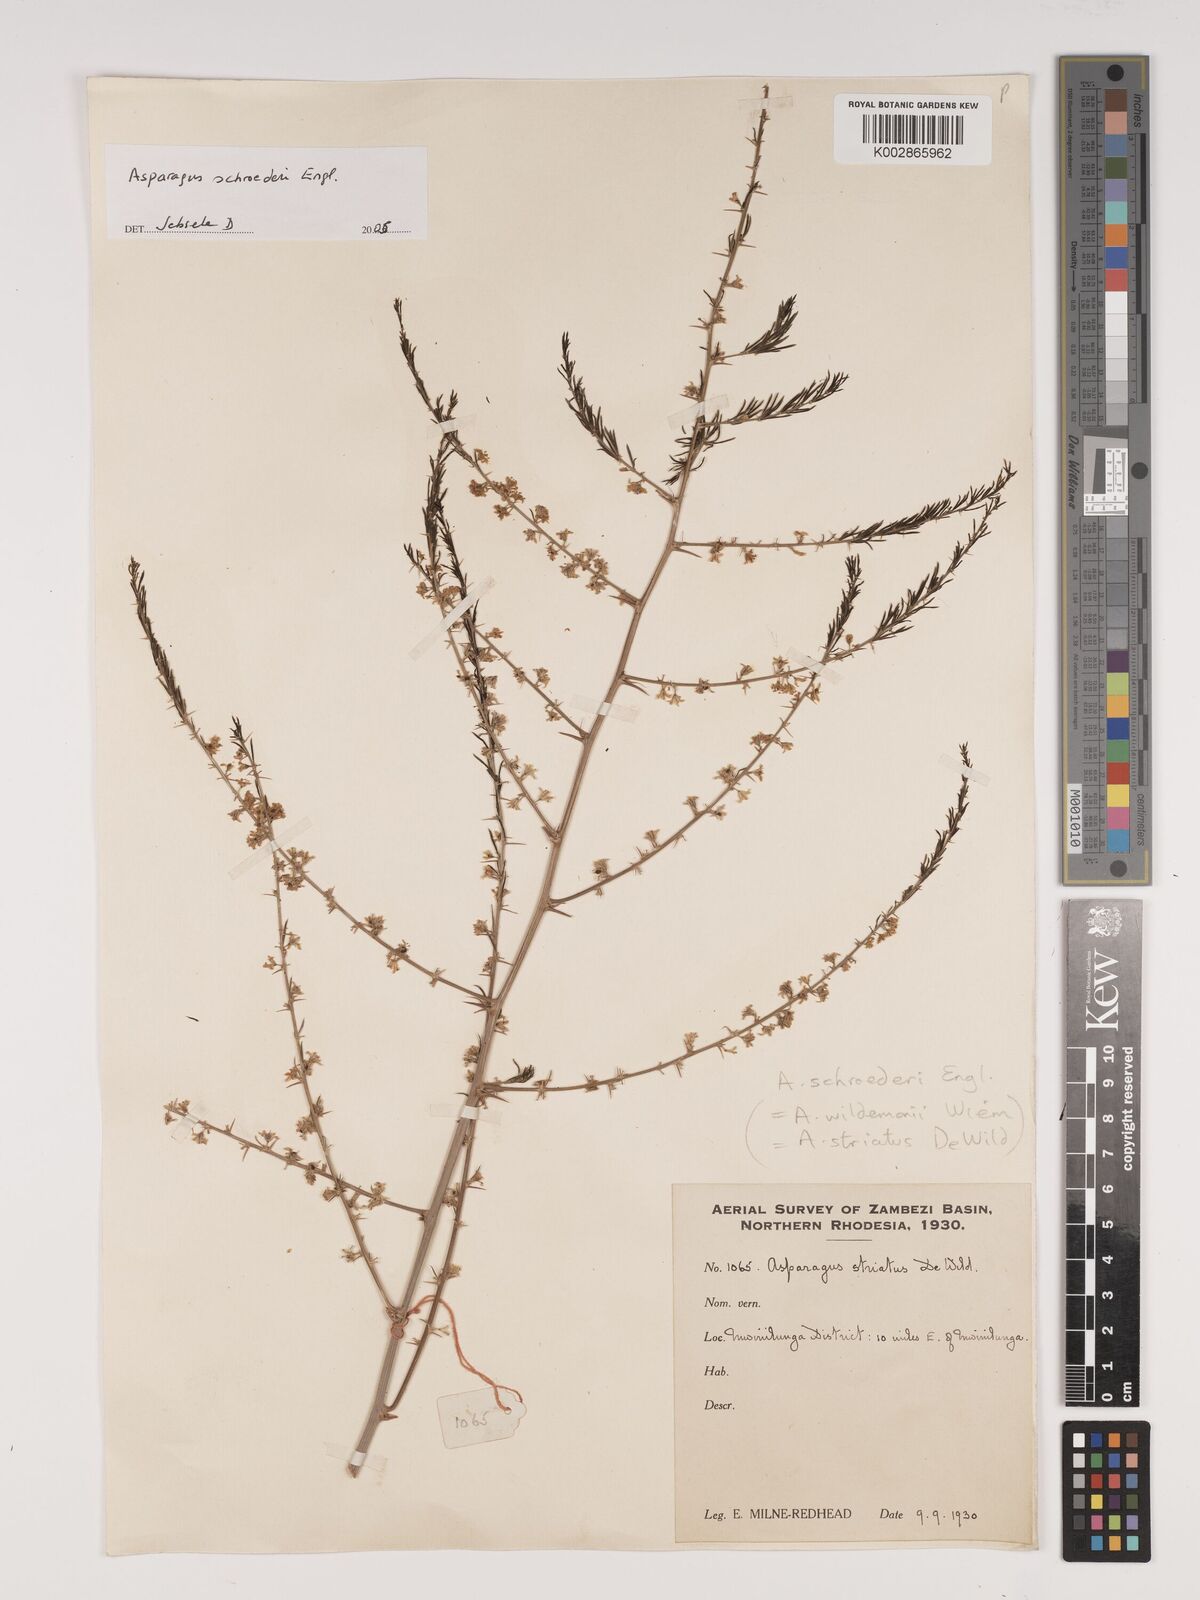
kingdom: Plantae
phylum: Tracheophyta
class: Liliopsida
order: Asparagales
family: Asparagaceae
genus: Asparagus
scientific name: Asparagus schroederi
